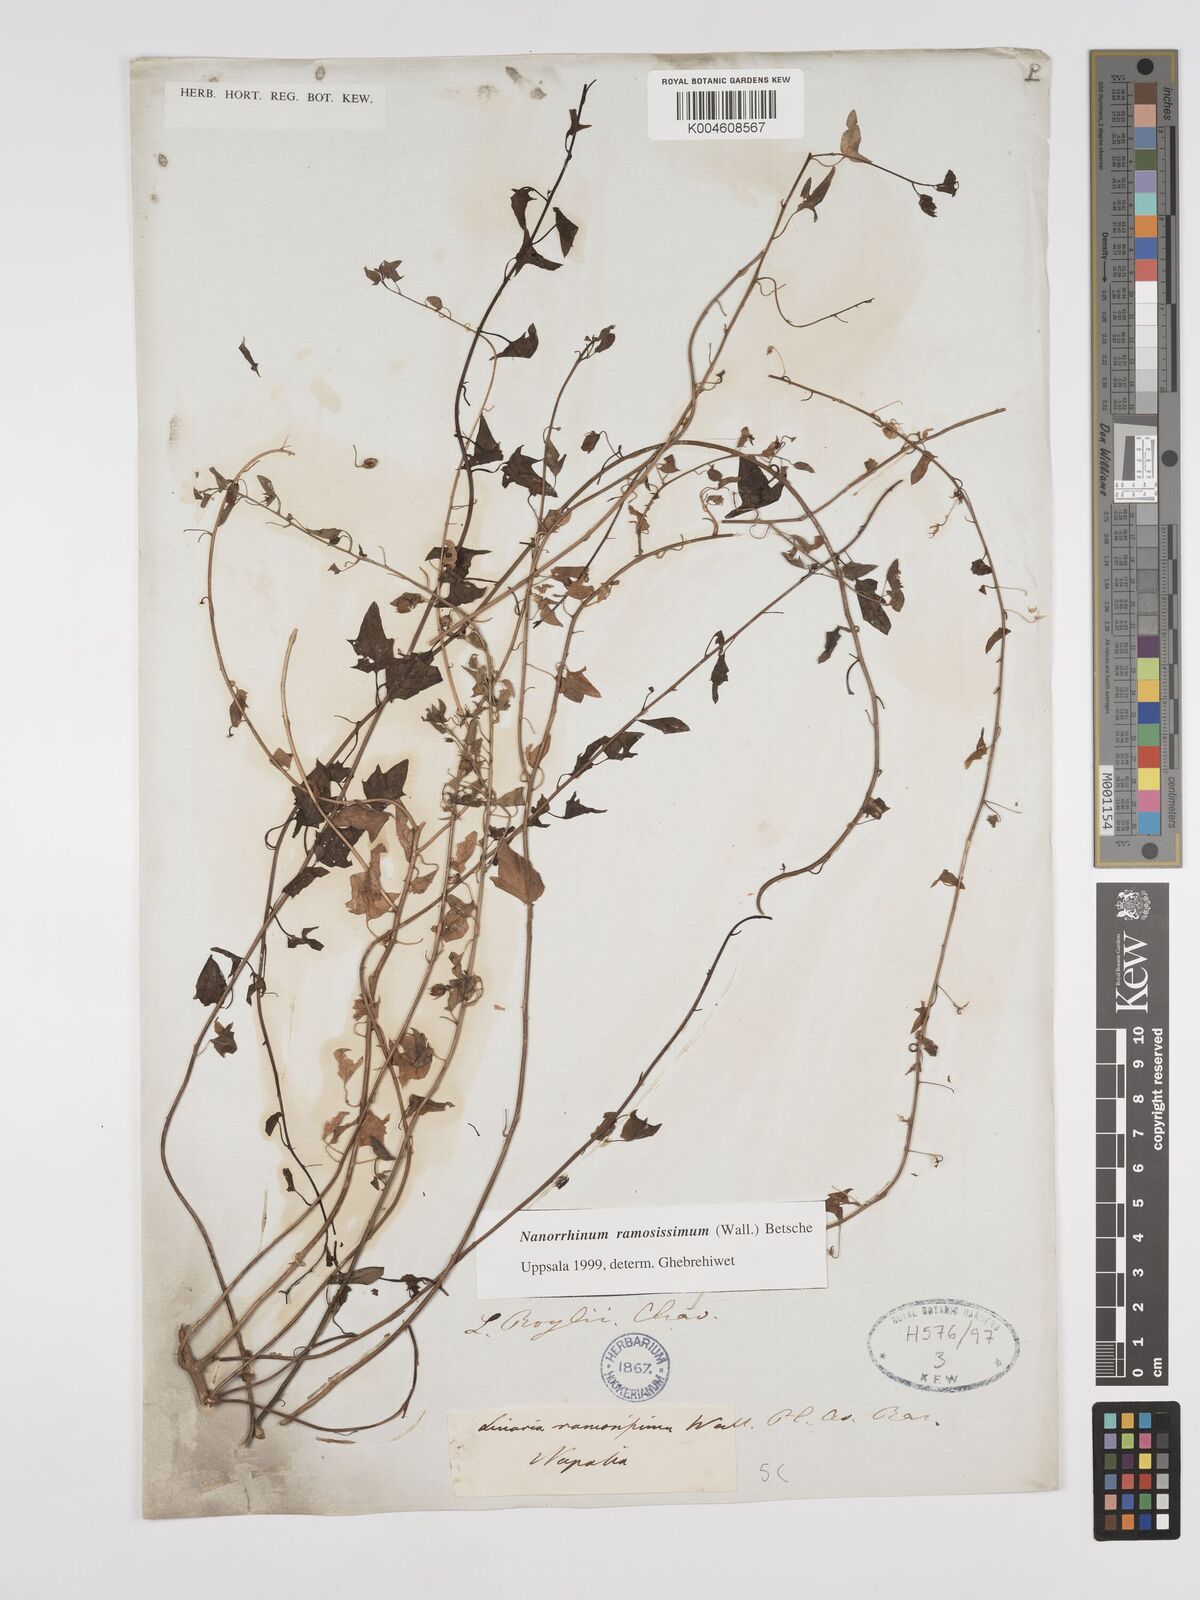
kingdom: Plantae
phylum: Tracheophyta
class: Magnoliopsida
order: Lamiales
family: Plantaginaceae
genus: Nanorrhinum
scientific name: Nanorrhinum ramosissimum
